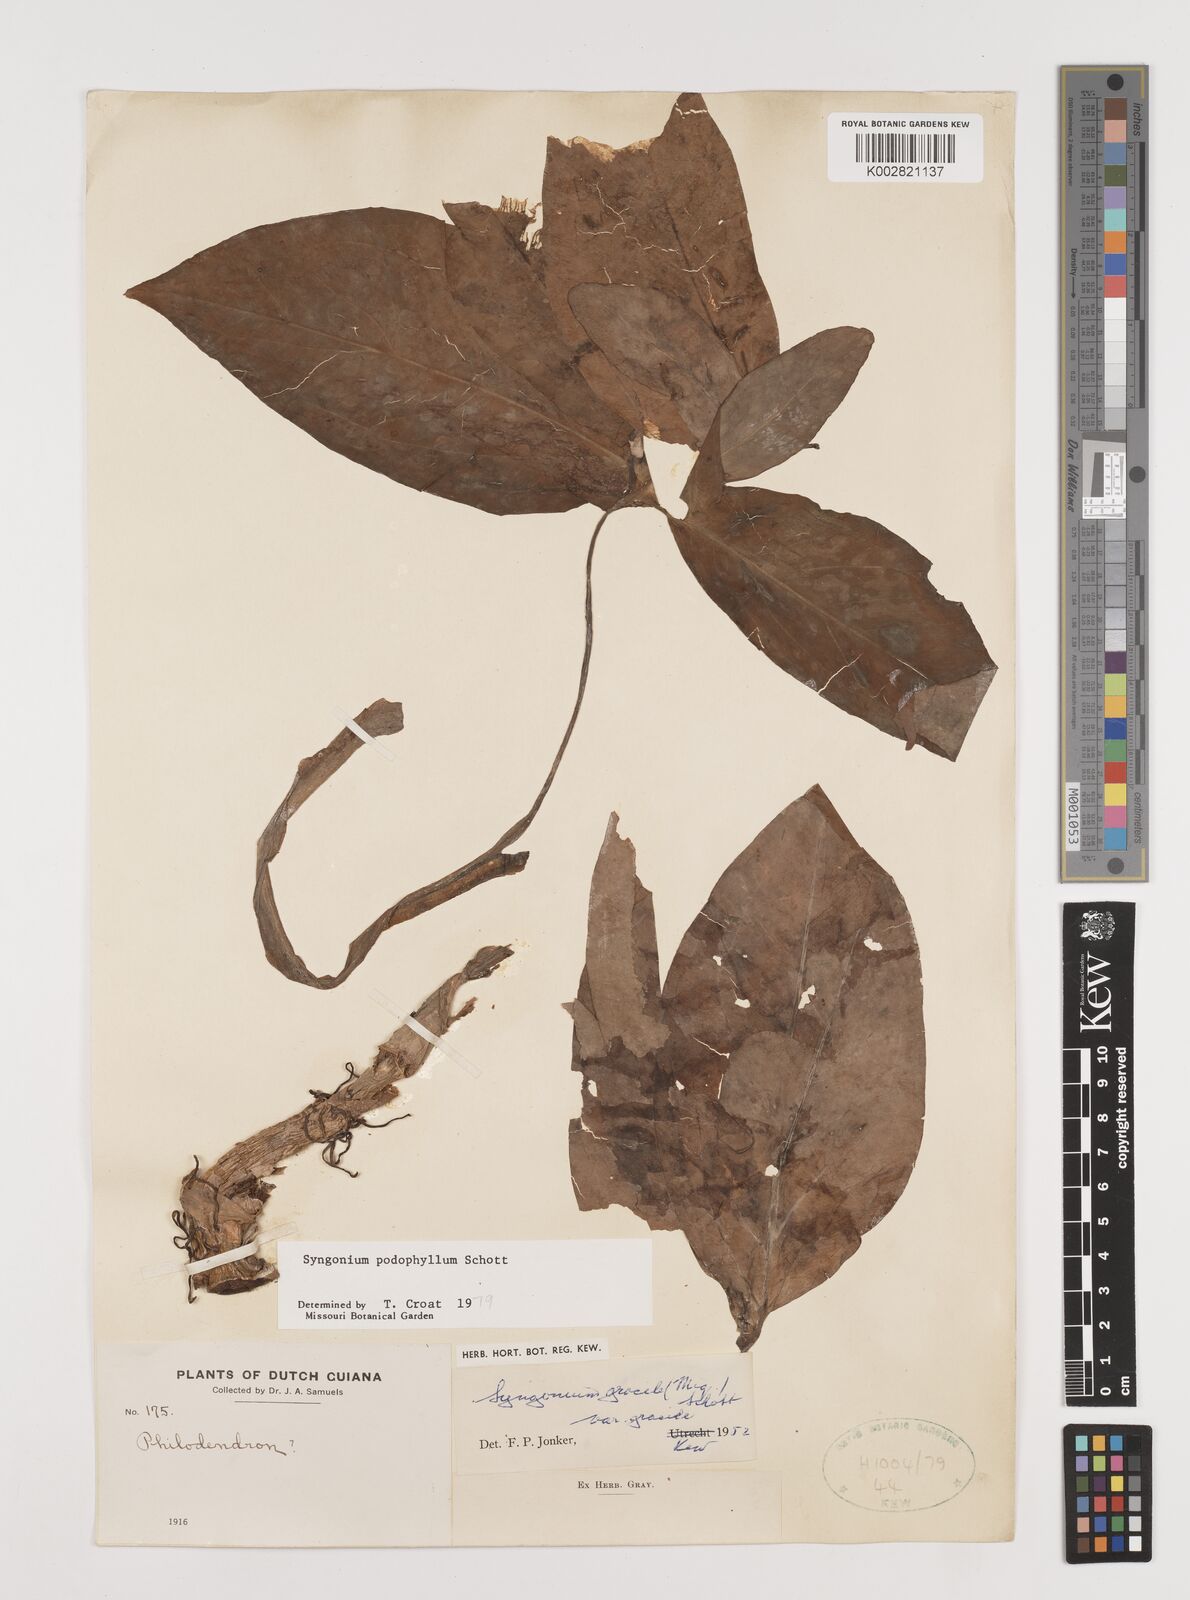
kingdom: Plantae
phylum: Tracheophyta
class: Liliopsida
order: Alismatales
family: Araceae
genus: Syngonium
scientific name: Syngonium podophyllum
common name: American evergreen
